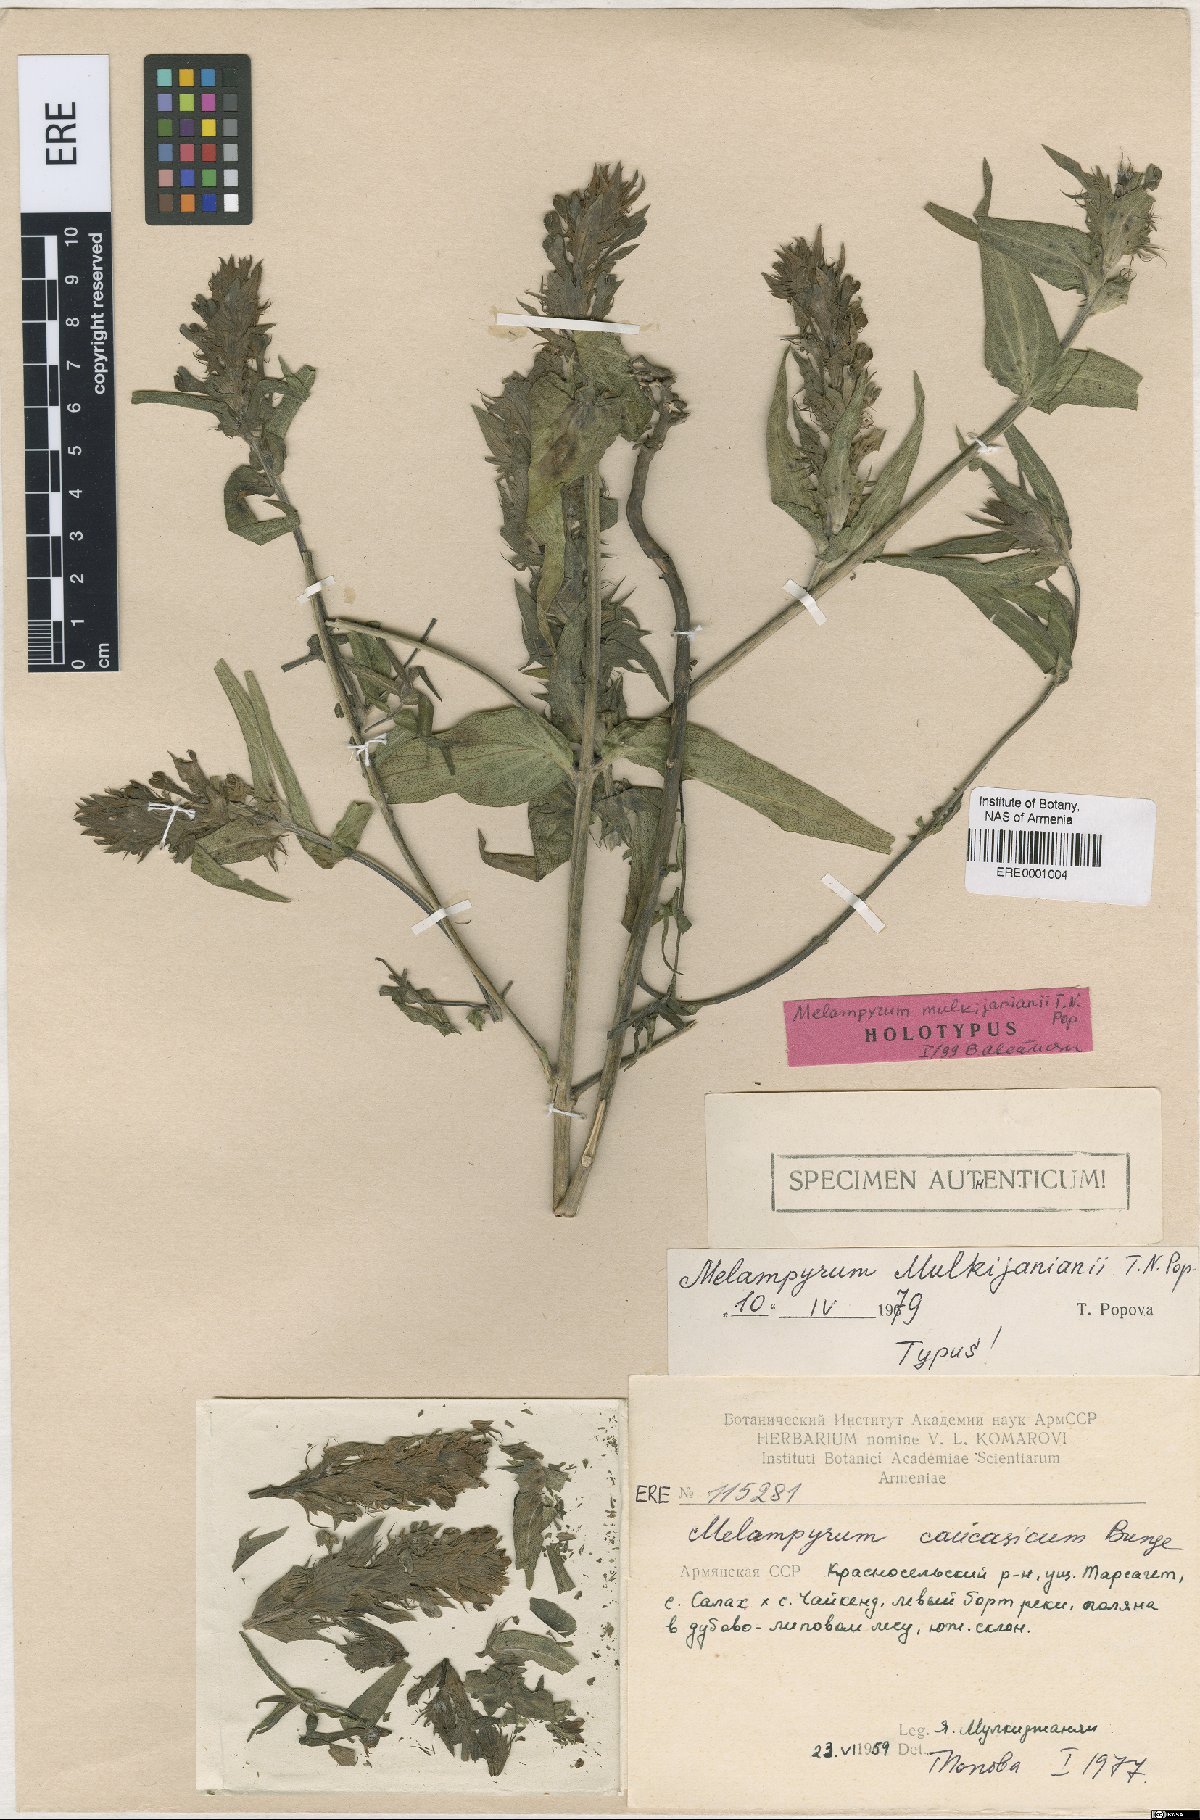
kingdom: Plantae
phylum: Tracheophyta
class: Magnoliopsida
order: Lamiales
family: Orobanchaceae
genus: Melampyrum
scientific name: Melampyrum mulkijanianii
